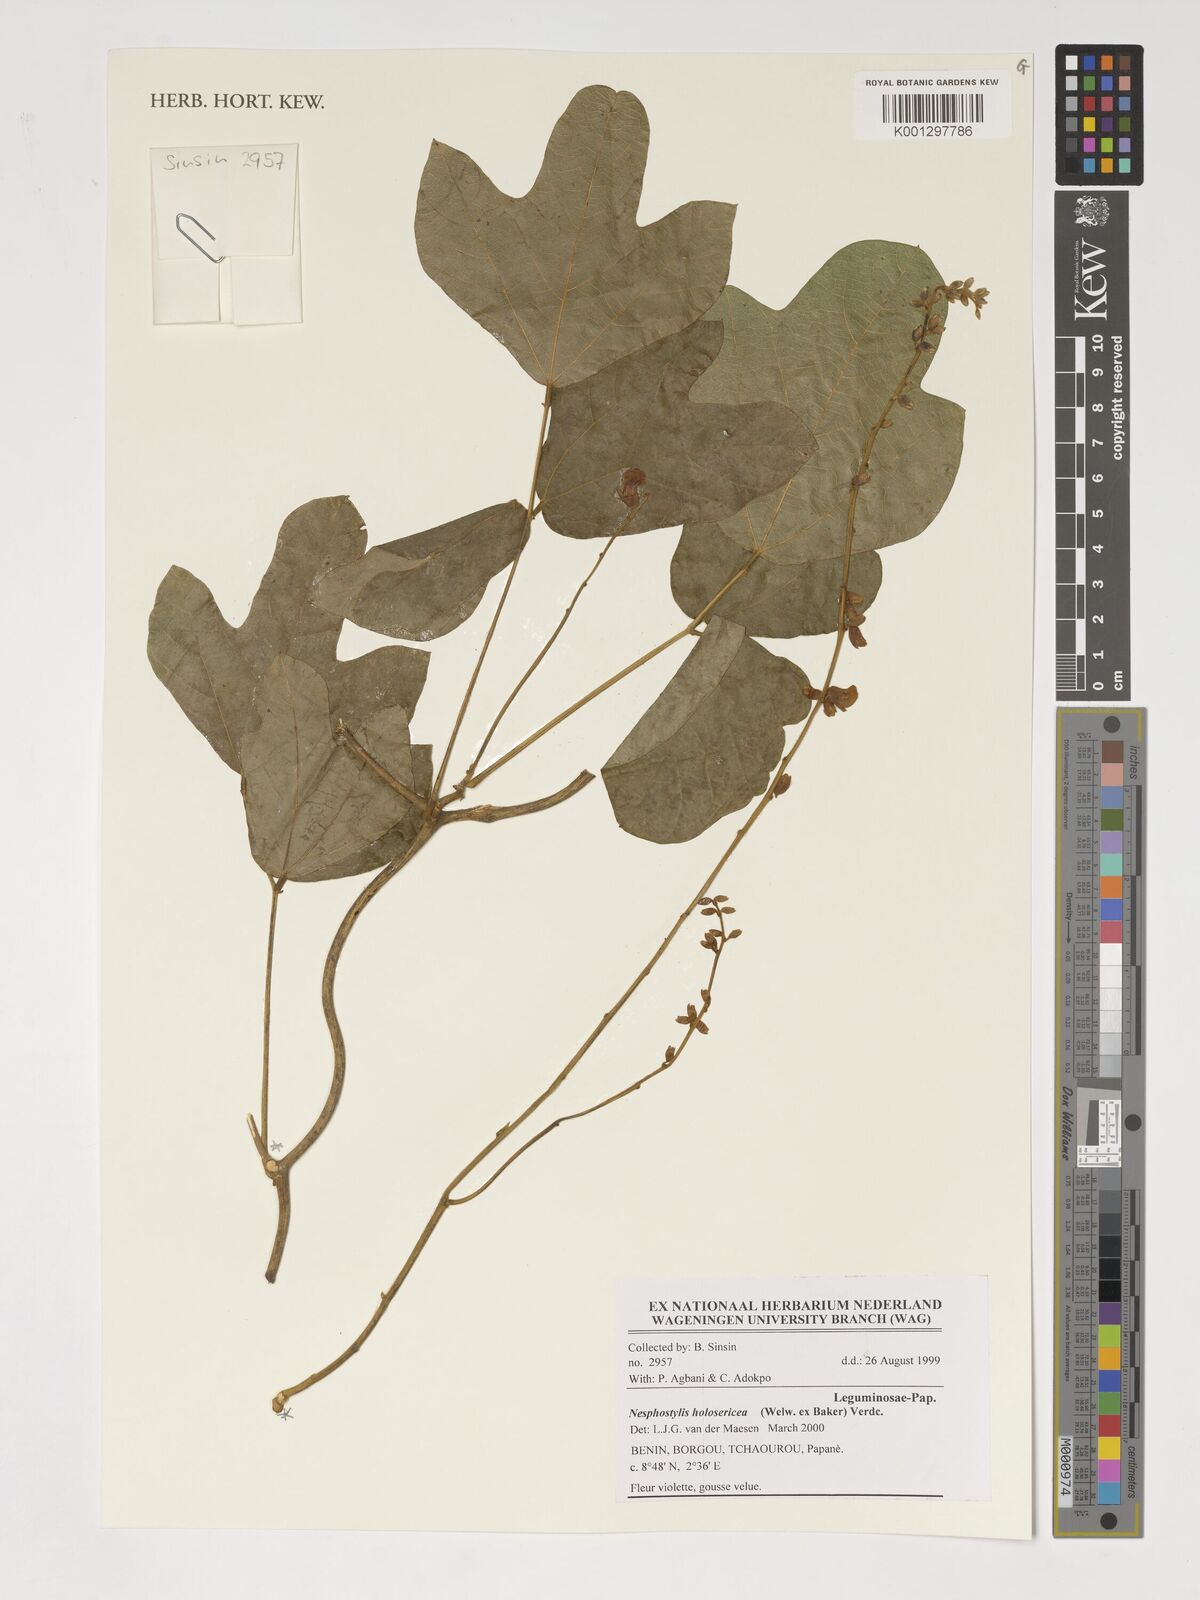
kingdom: Plantae
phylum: Tracheophyta
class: Magnoliopsida
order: Fabales
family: Fabaceae
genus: Nesphostylis
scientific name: Nesphostylis holosericea
